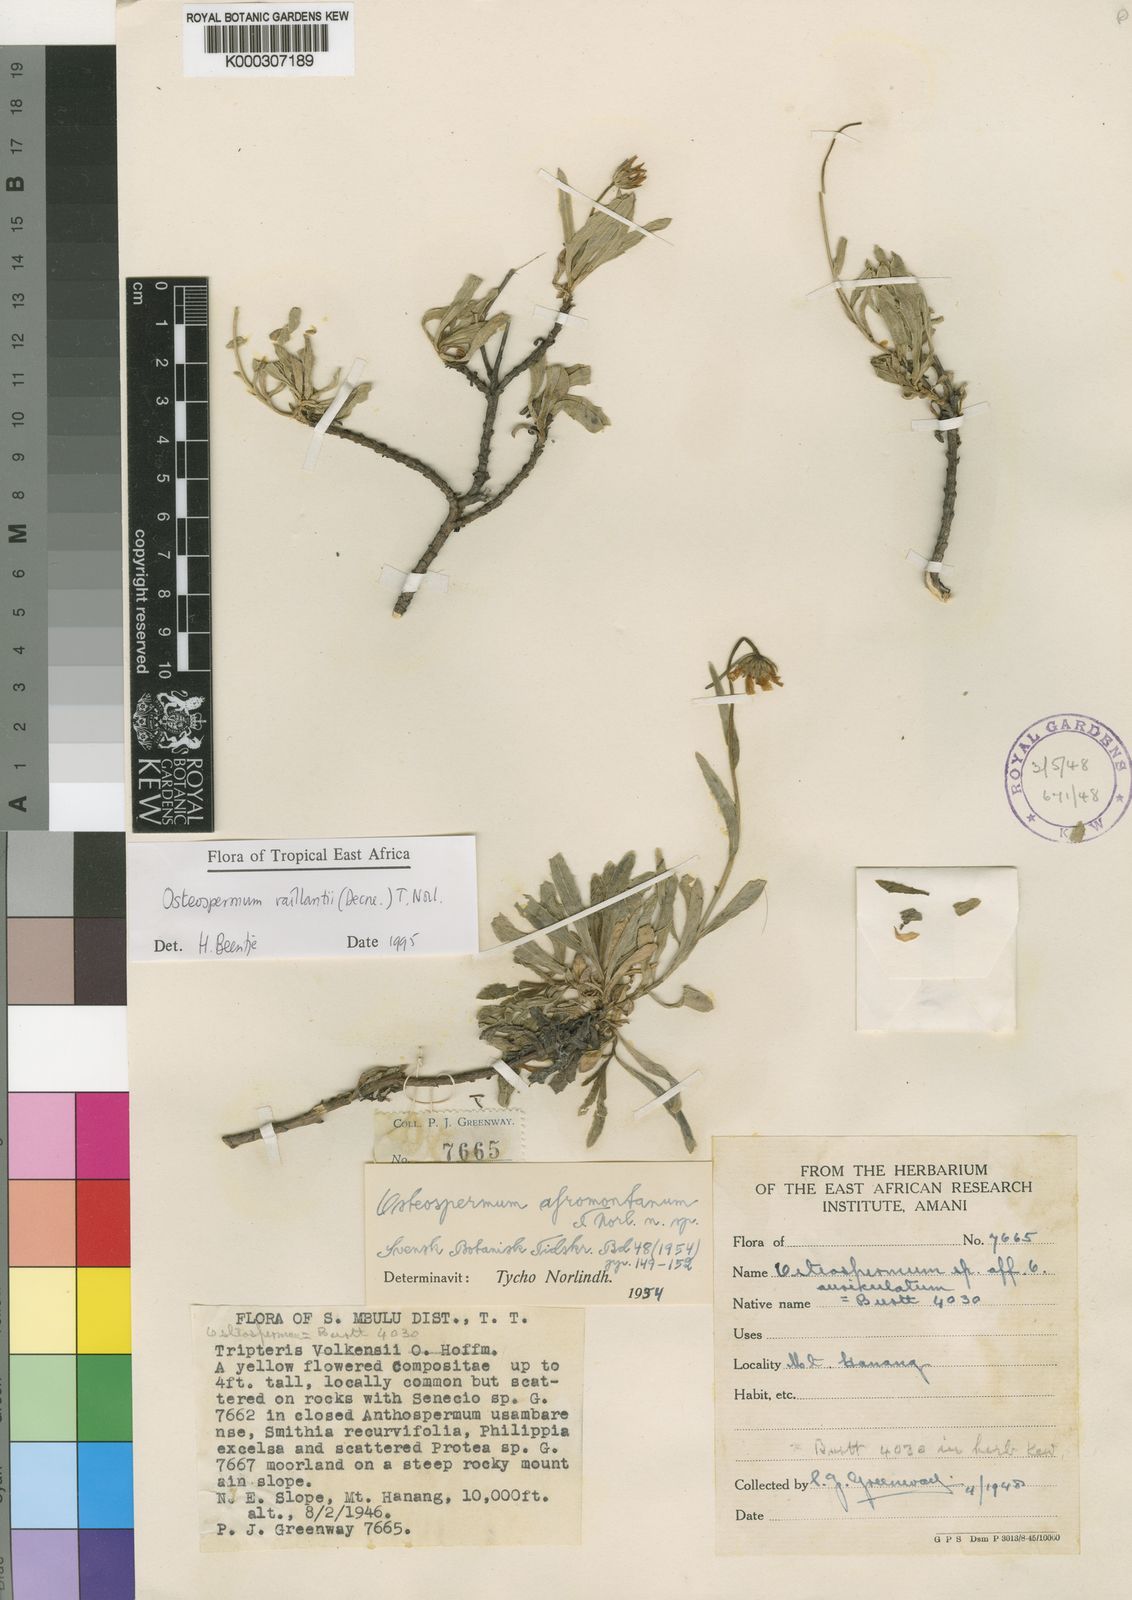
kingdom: Plantae
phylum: Tracheophyta
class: Magnoliopsida
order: Asterales
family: Asteraceae
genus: Osteospermum
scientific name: Osteospermum vaillantii
